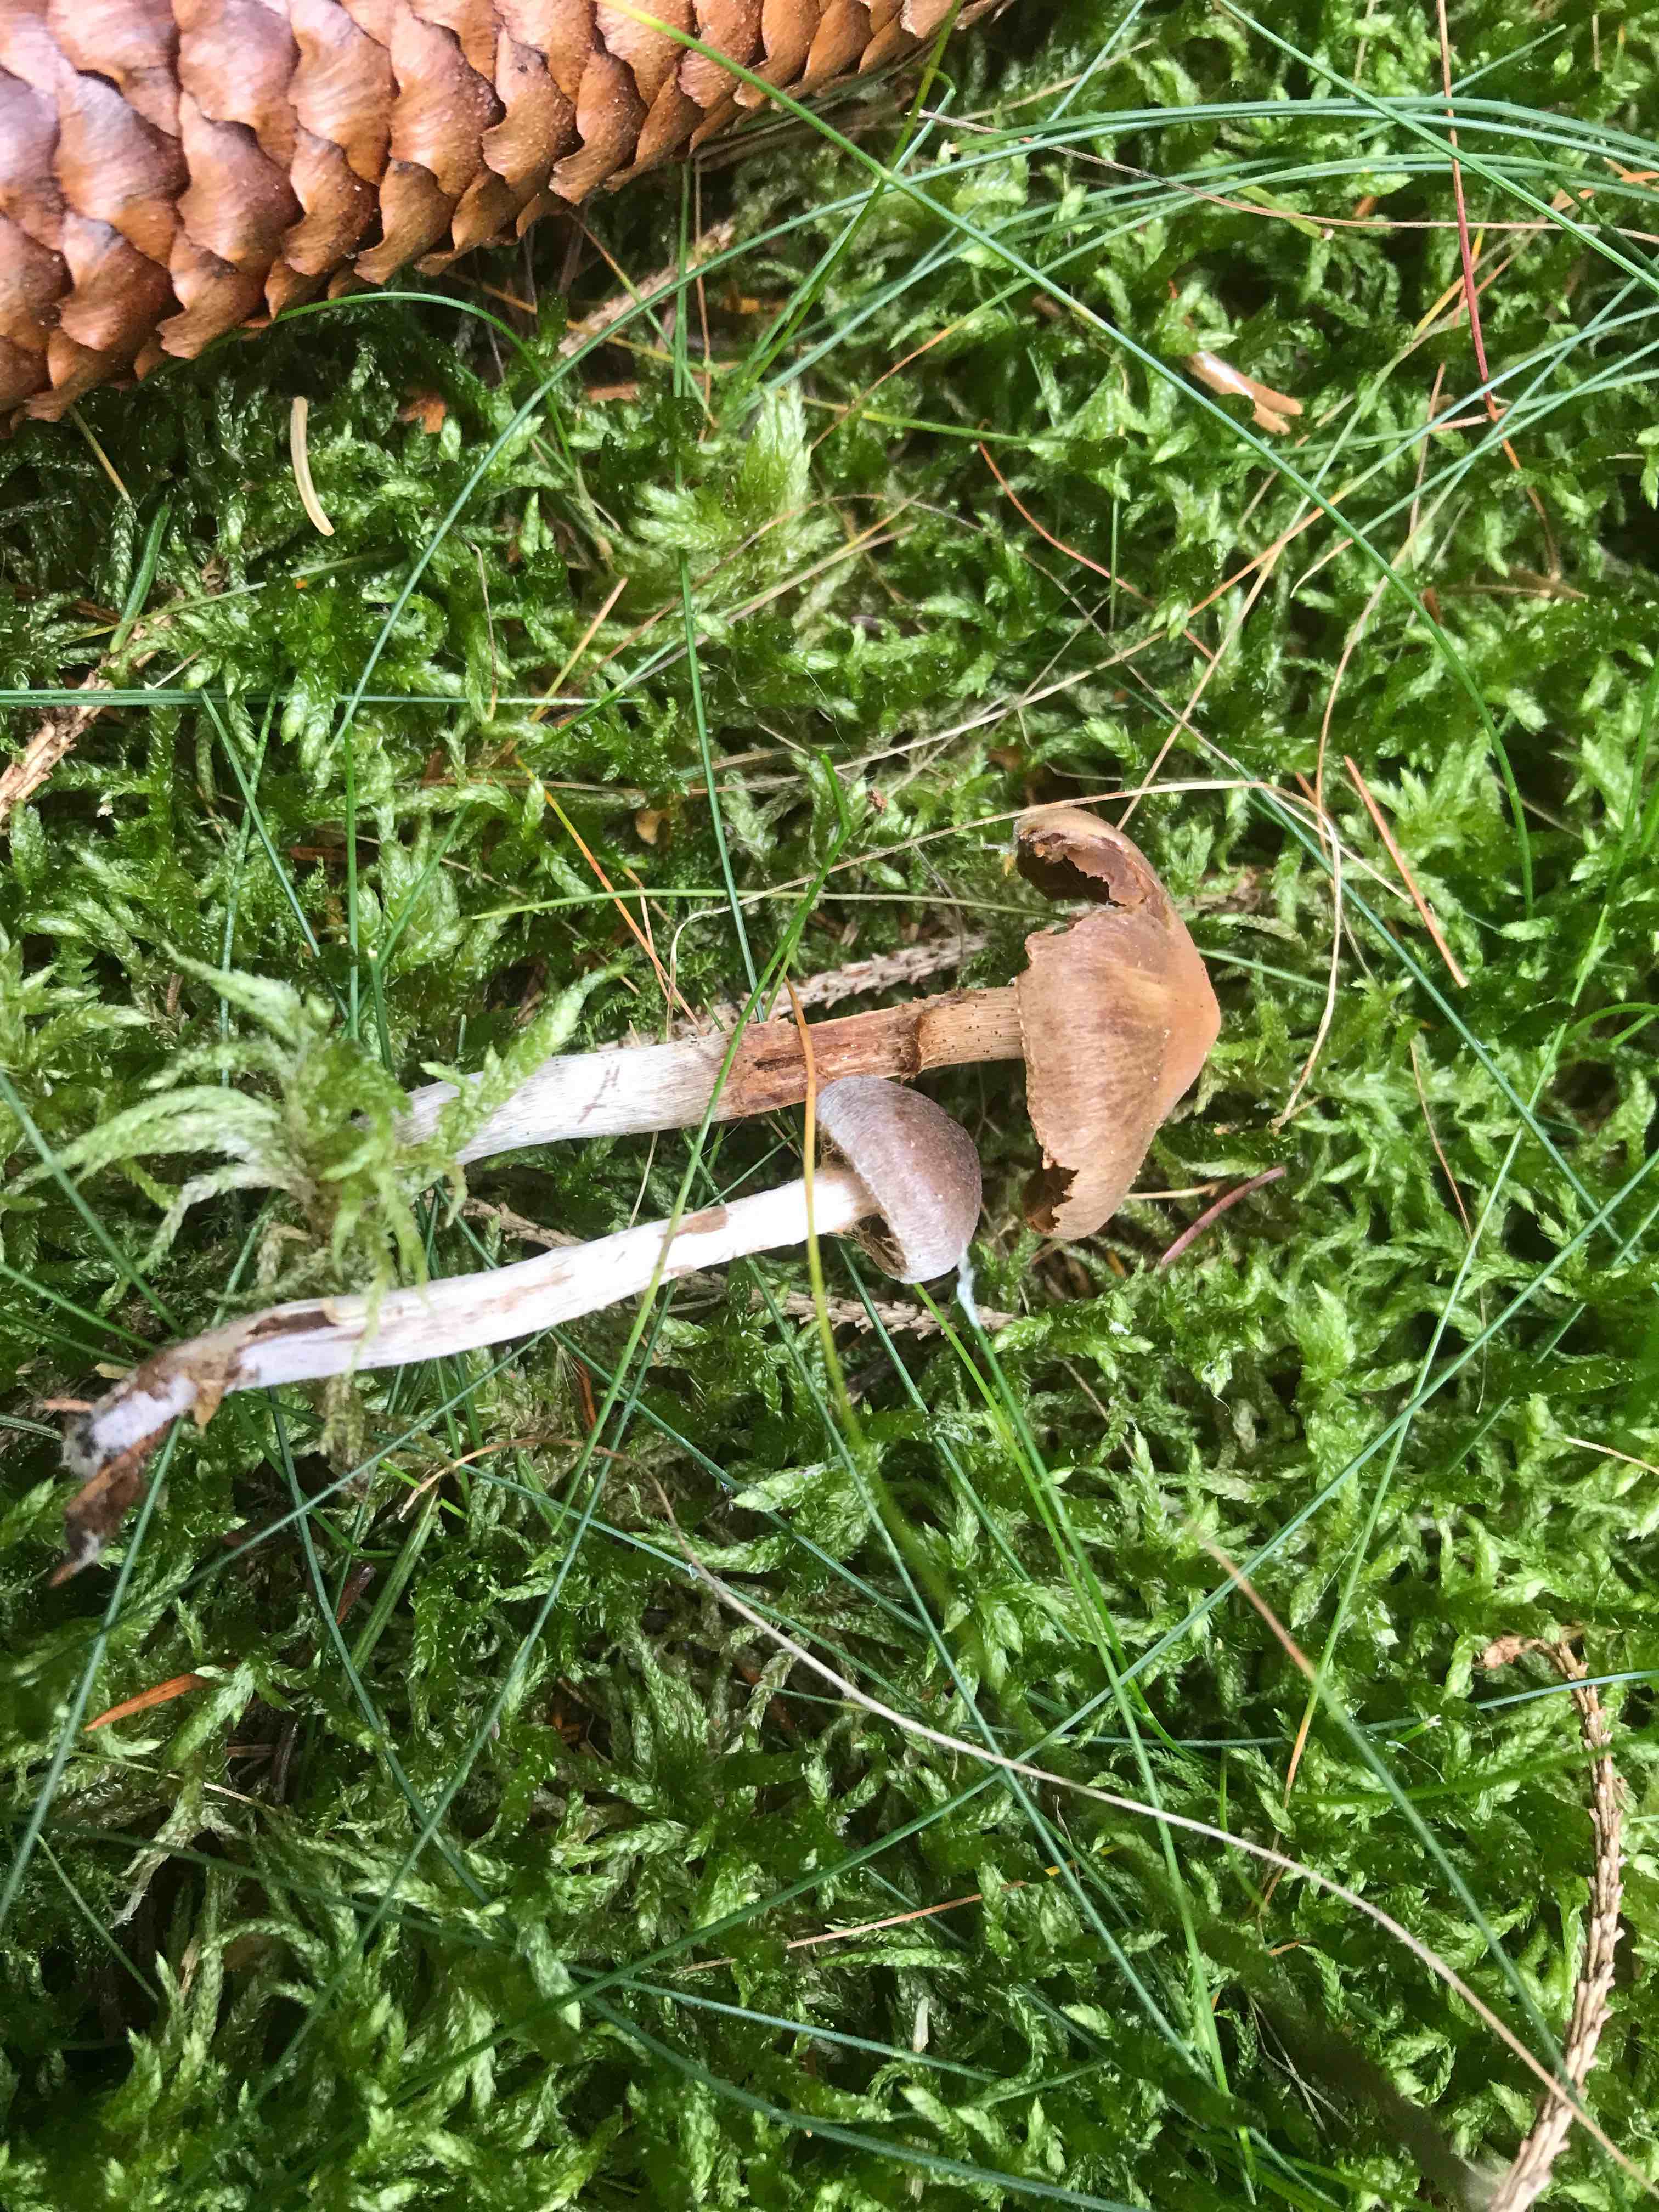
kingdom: Fungi
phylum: Basidiomycota
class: Agaricomycetes
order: Agaricales
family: Cortinariaceae
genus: Cortinarius
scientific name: Cortinarius
